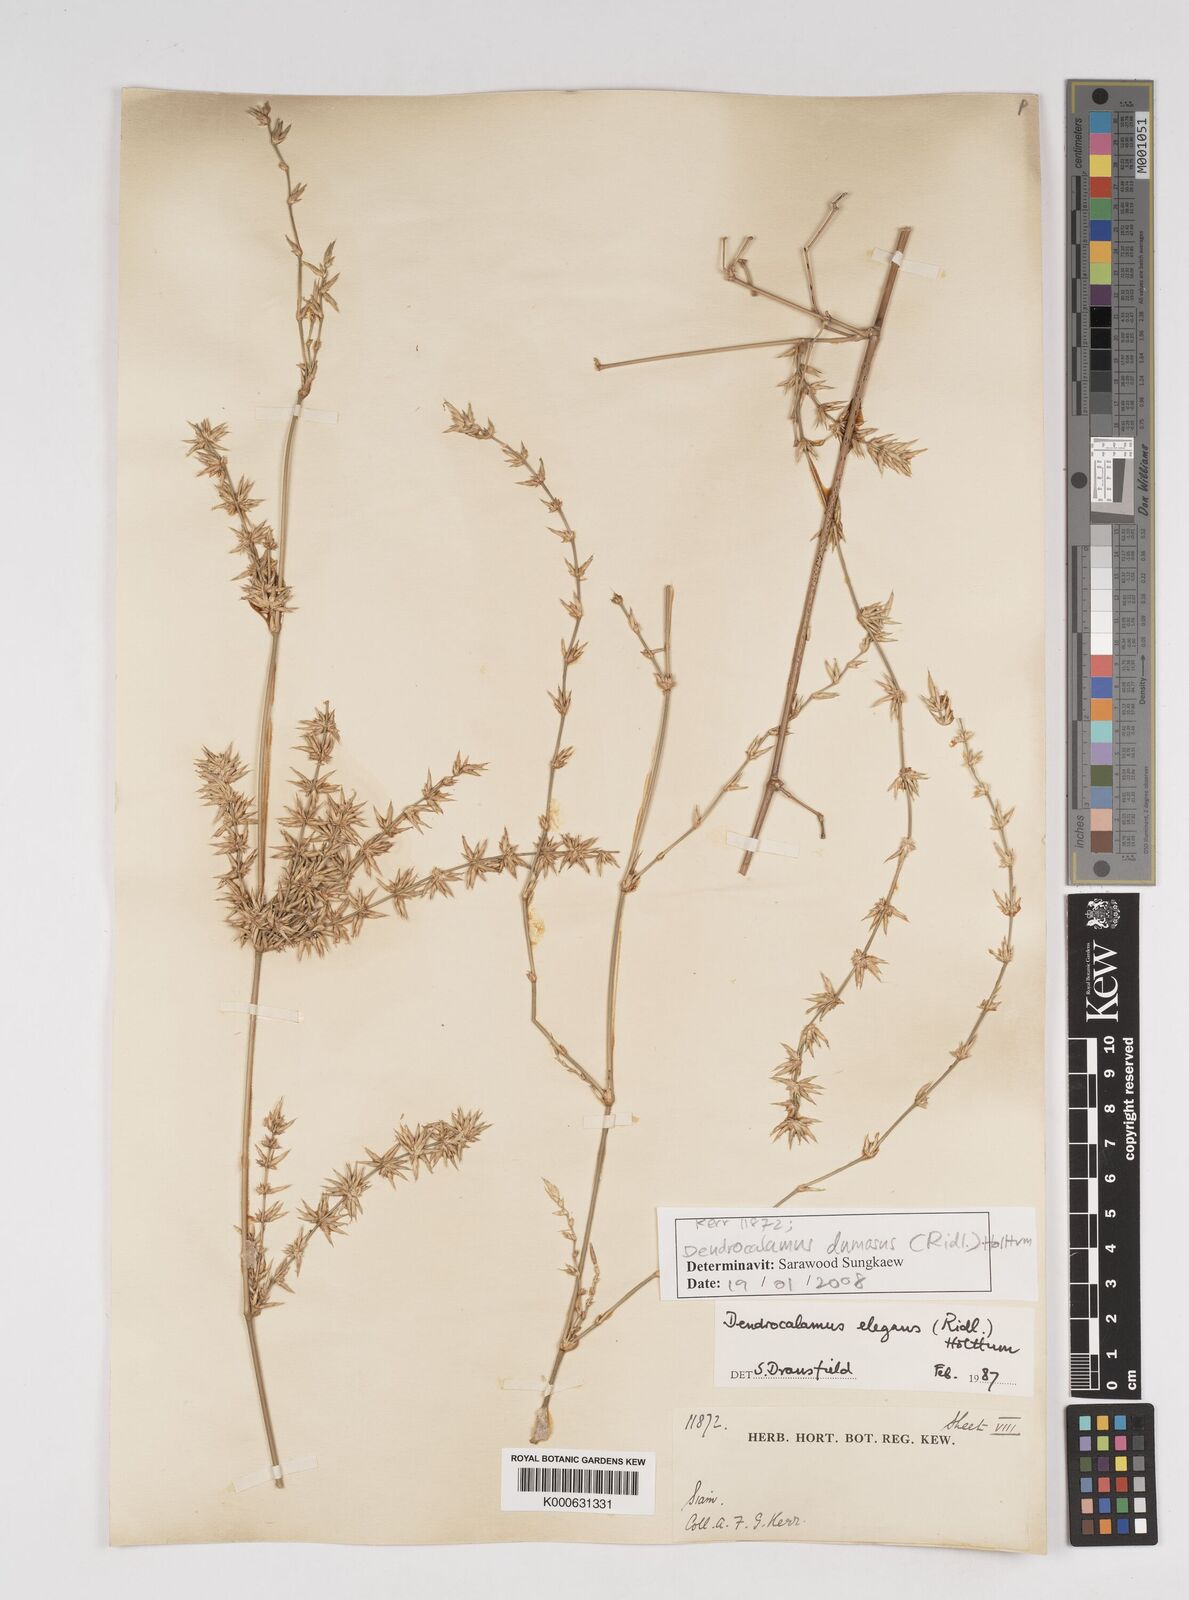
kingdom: Plantae
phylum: Tracheophyta
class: Liliopsida
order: Poales
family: Poaceae
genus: Dendrocalamus
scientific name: Dendrocalamus dumosus
